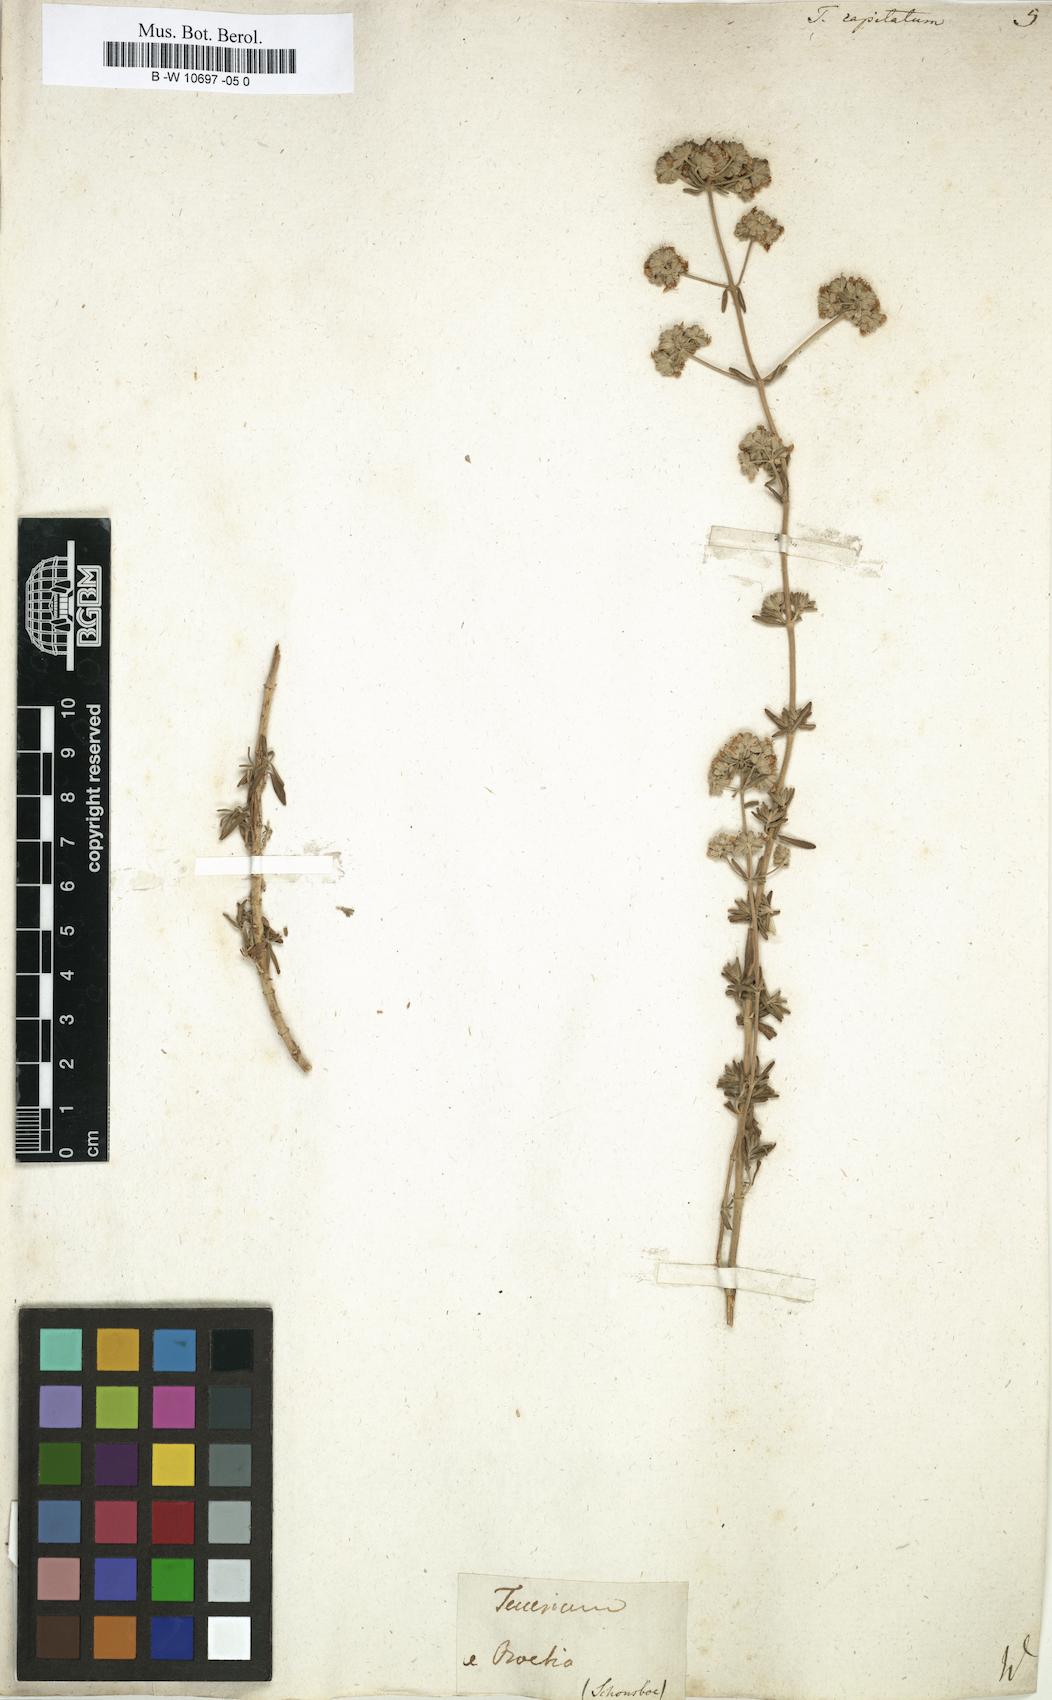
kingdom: Plantae
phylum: Tracheophyta
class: Magnoliopsida
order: Lamiales
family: Lamiaceae
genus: Teucrium
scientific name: Teucrium capitatum
